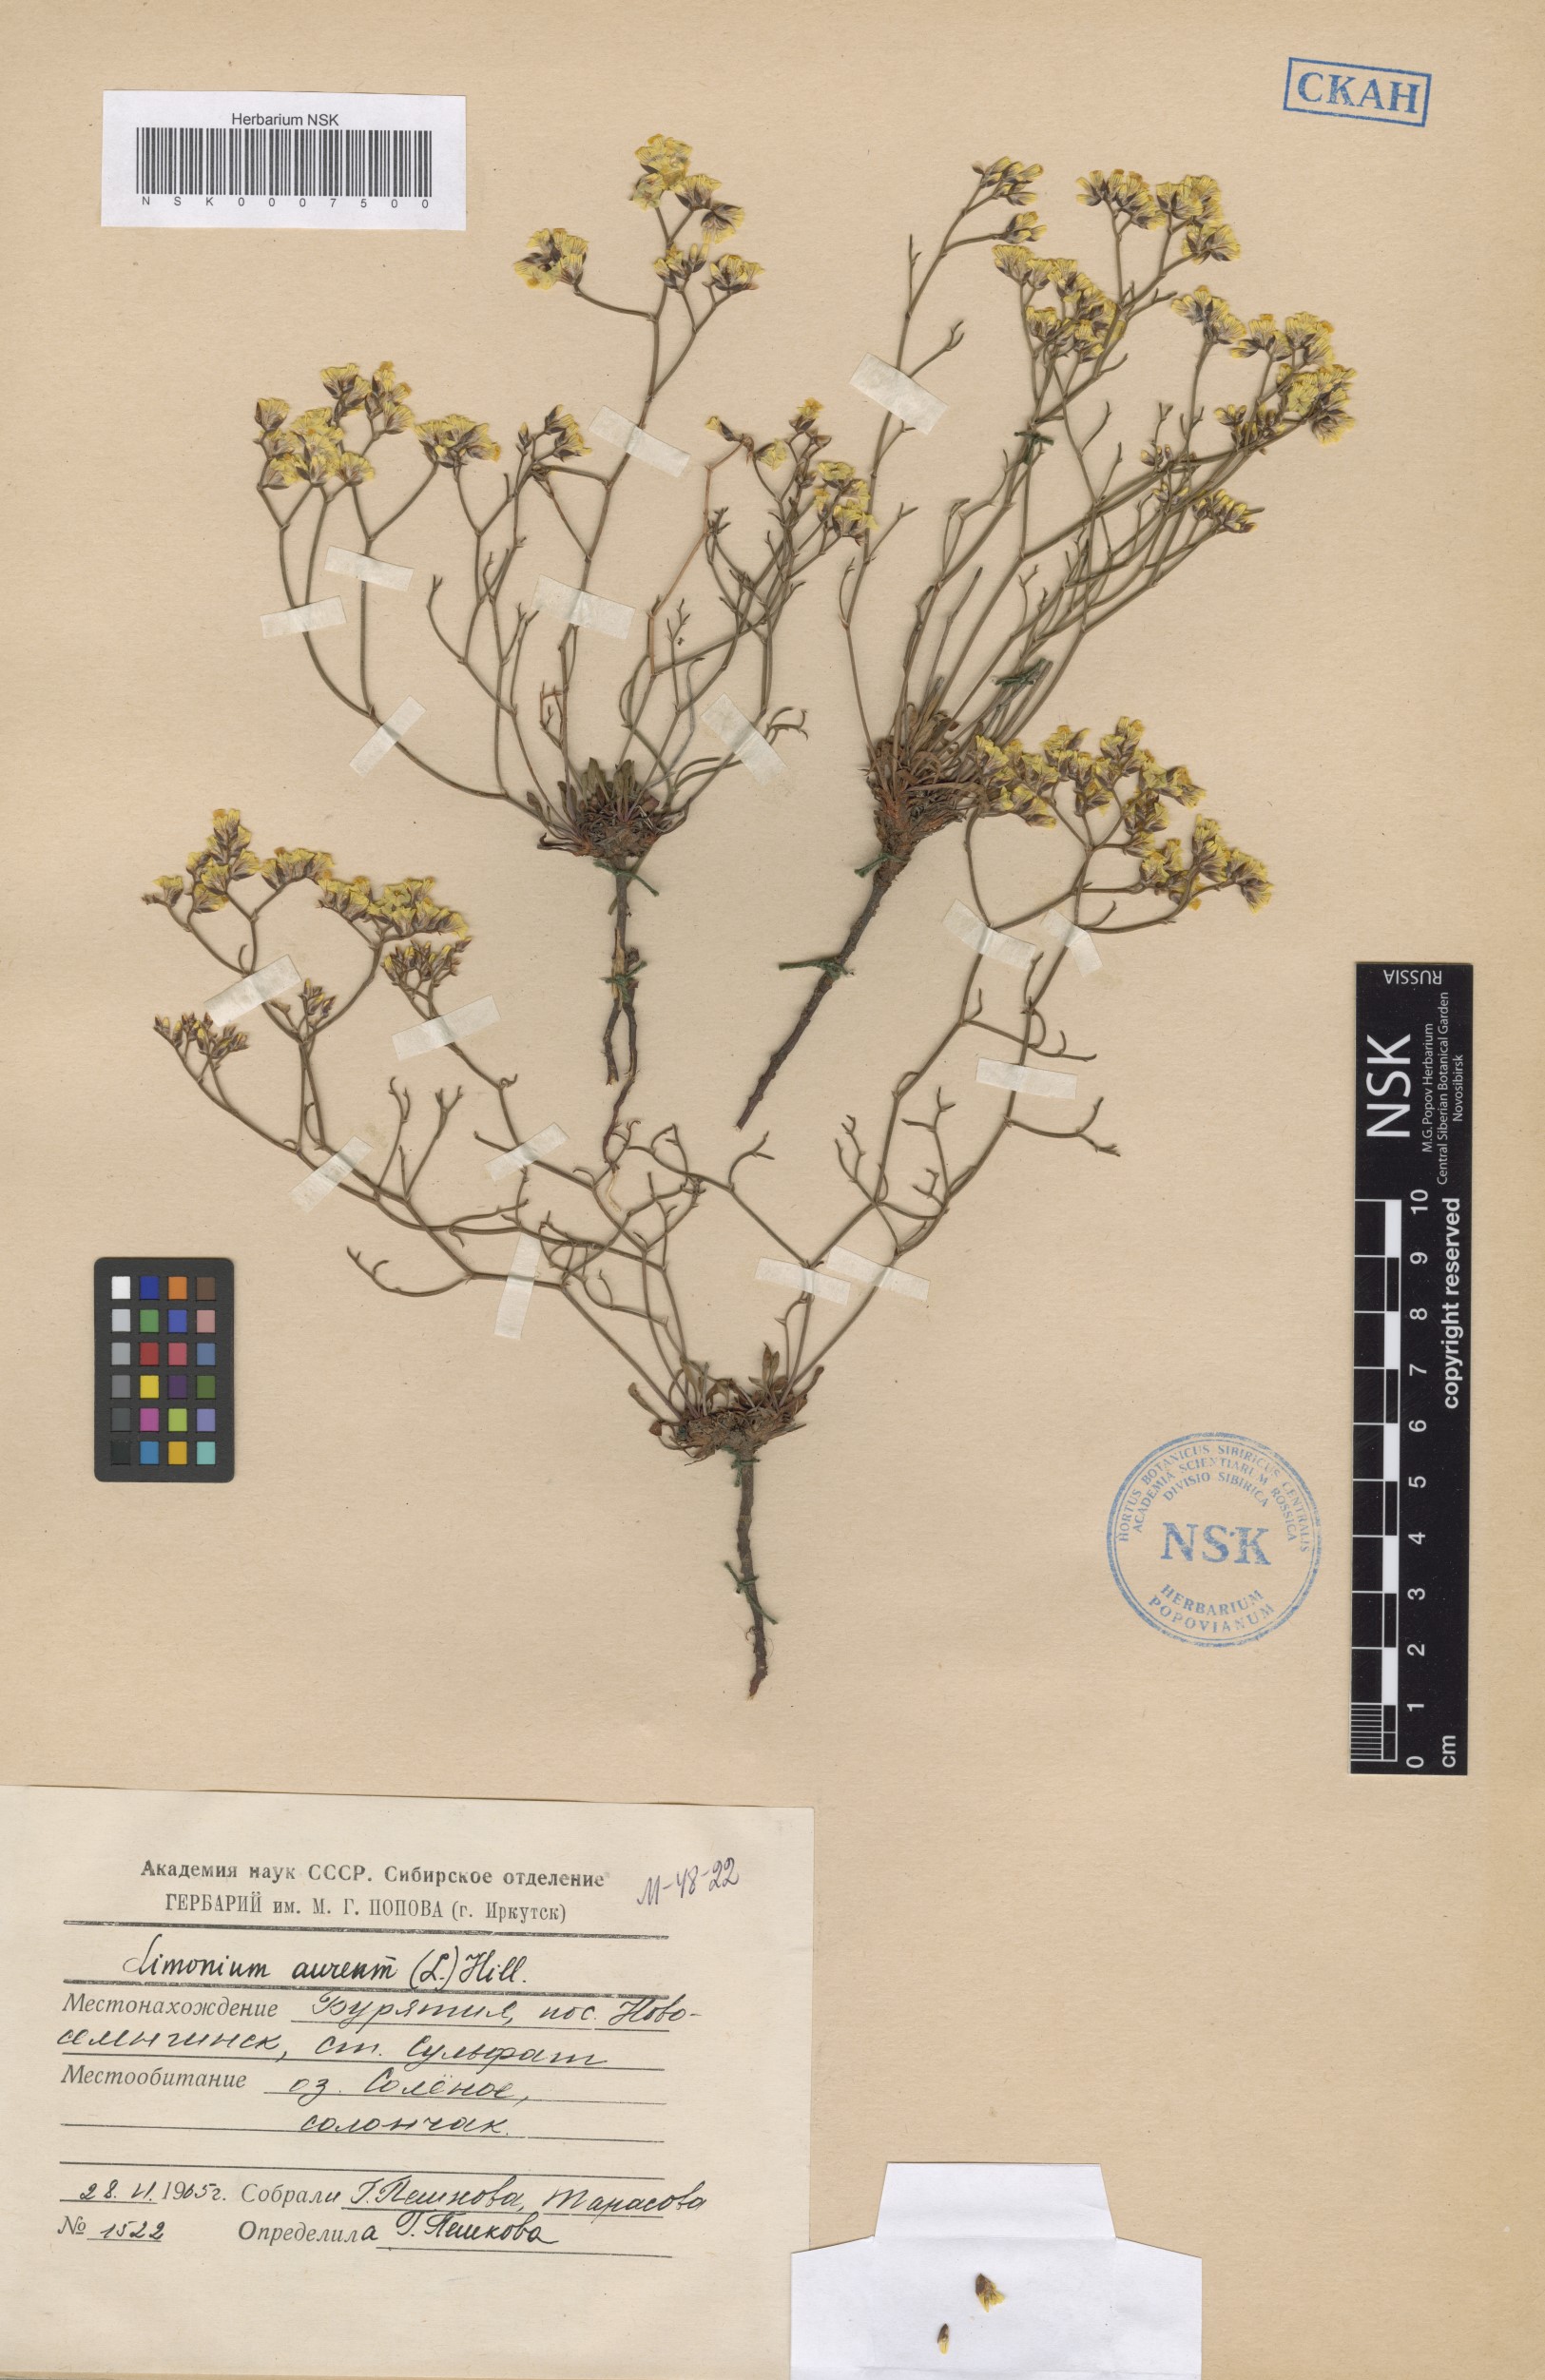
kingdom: Plantae
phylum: Tracheophyta
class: Magnoliopsida
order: Caryophyllales
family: Plumbaginaceae
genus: Limonium
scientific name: Limonium aureum
